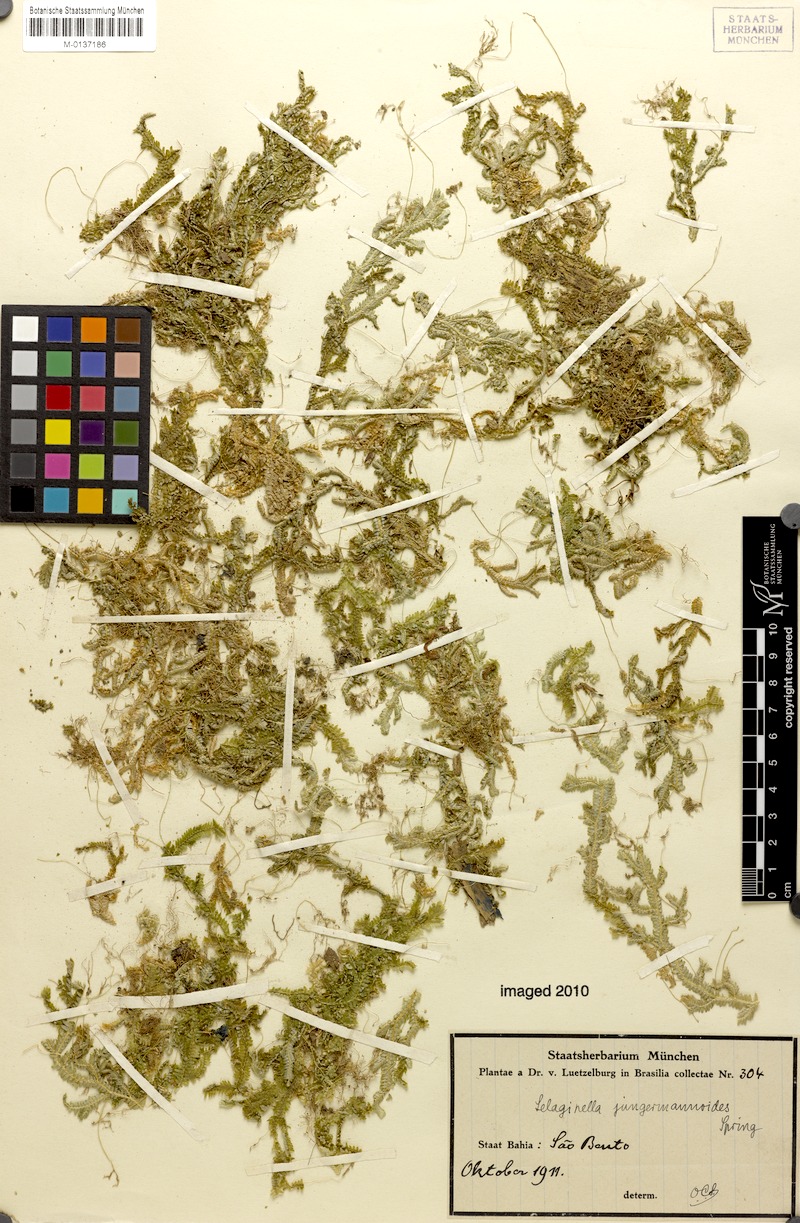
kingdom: Plantae
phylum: Tracheophyta
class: Lycopodiopsida
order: Selaginellales
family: Selaginellaceae
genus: Selaginella
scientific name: Selaginella jungermannioides
